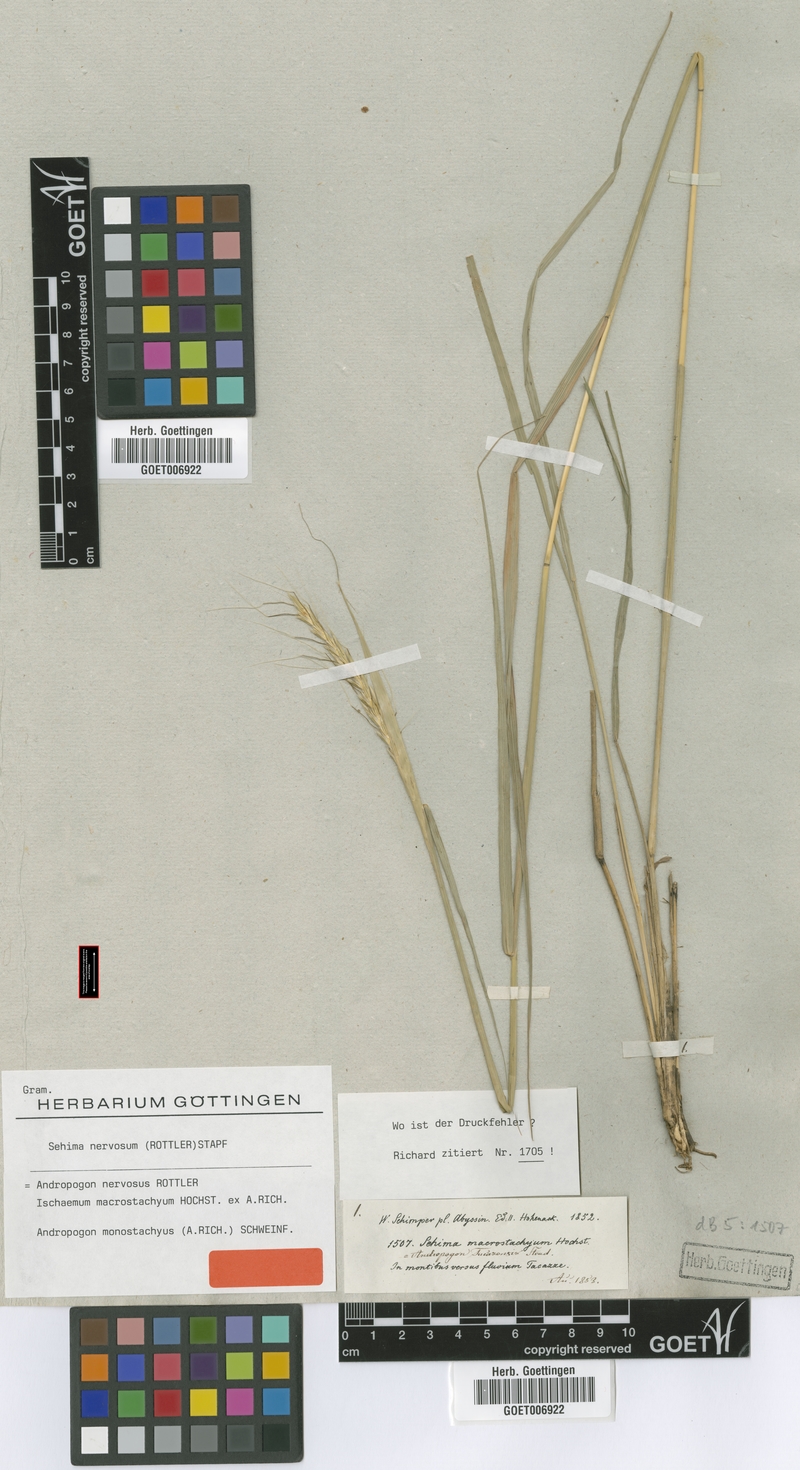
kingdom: Plantae
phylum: Tracheophyta
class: Liliopsida
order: Poales
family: Poaceae
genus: Sehima
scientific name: Sehima nervosa
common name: Rat-tail grass
